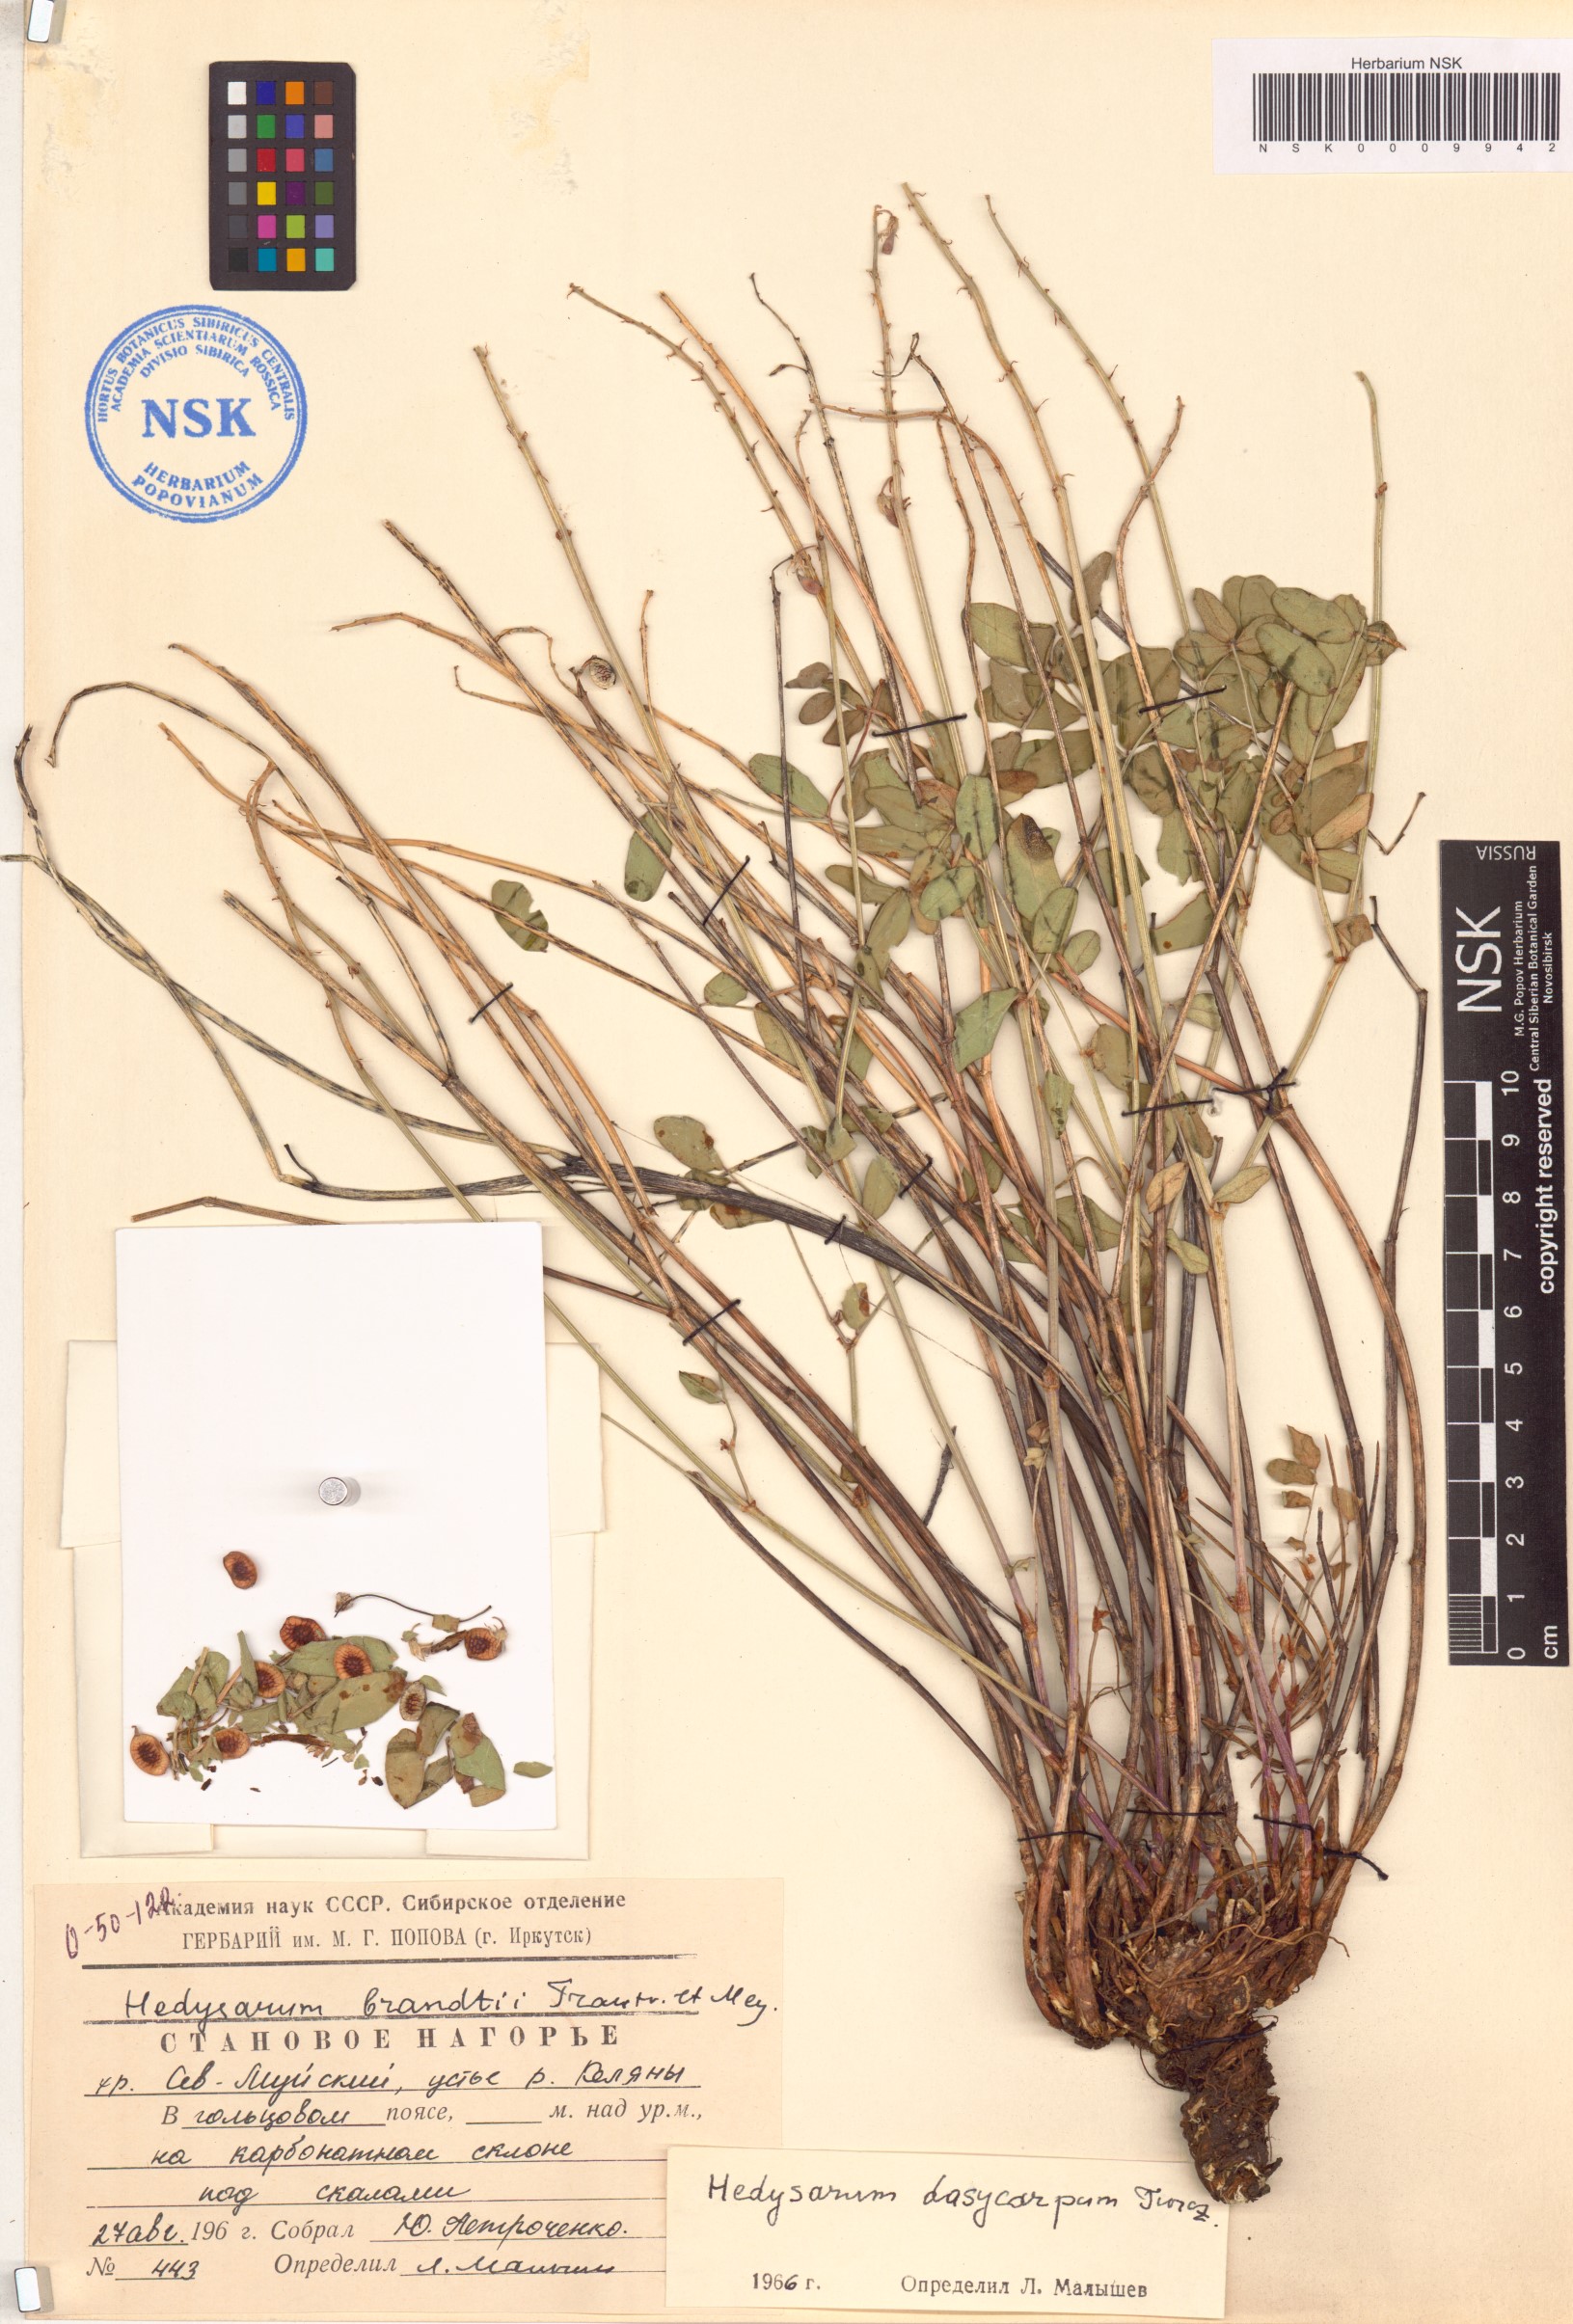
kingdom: Plantae
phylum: Tracheophyta
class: Magnoliopsida
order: Fabales
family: Fabaceae
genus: Hedysarum
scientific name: Hedysarum dasycarpum
